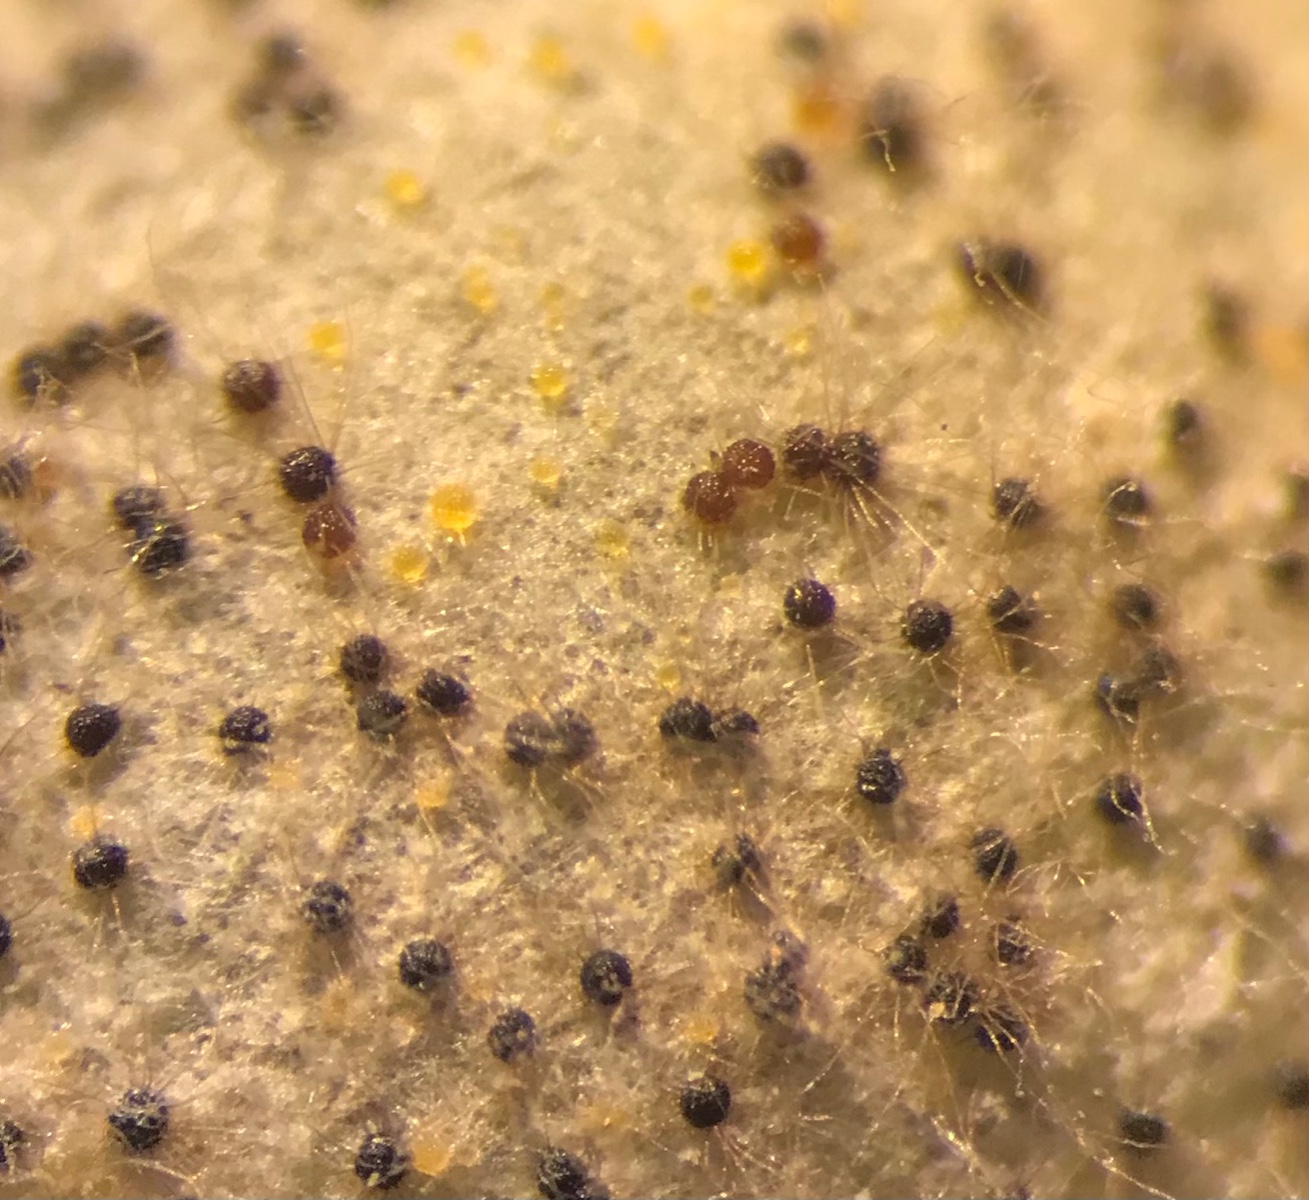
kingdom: Fungi
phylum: Ascomycota
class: Leotiomycetes
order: Helotiales
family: Erysiphaceae
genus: Erysiphe
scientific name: Erysiphe necator
